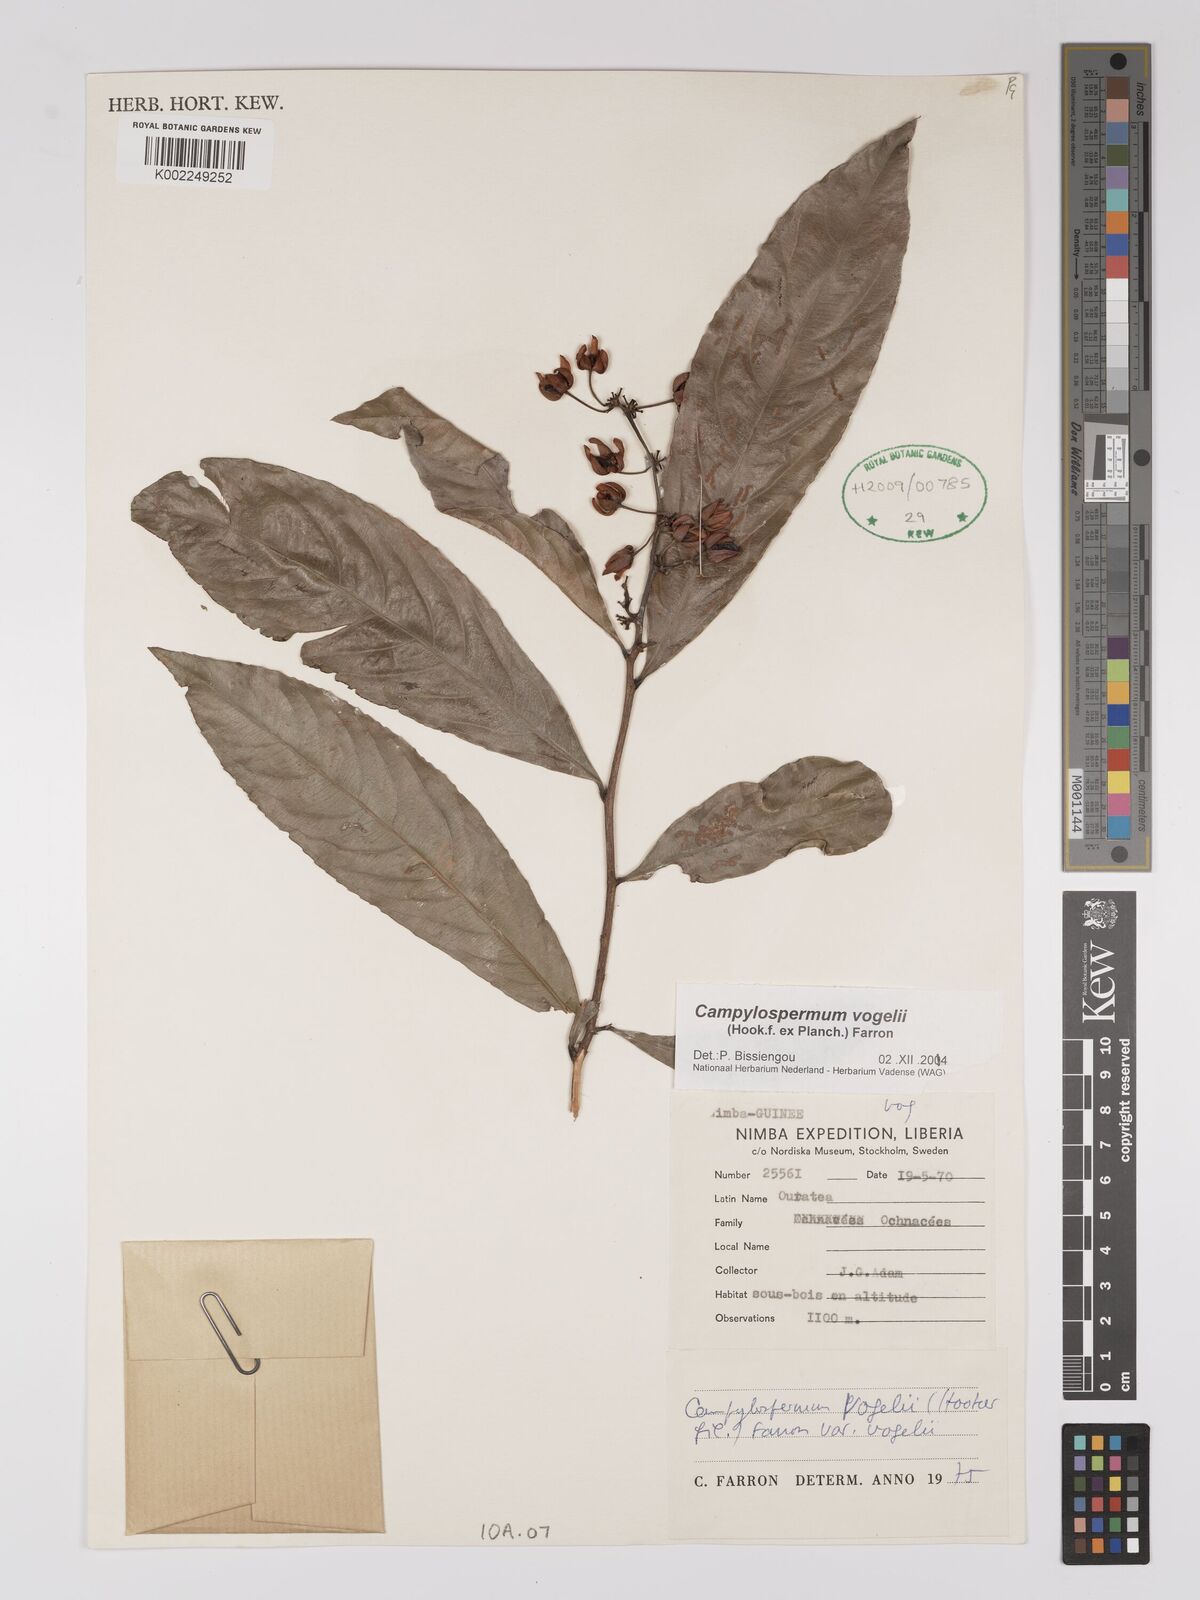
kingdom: Plantae
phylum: Tracheophyta
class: Magnoliopsida
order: Malpighiales
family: Ochnaceae
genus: Campylospermum
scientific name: Campylospermum vogelii
